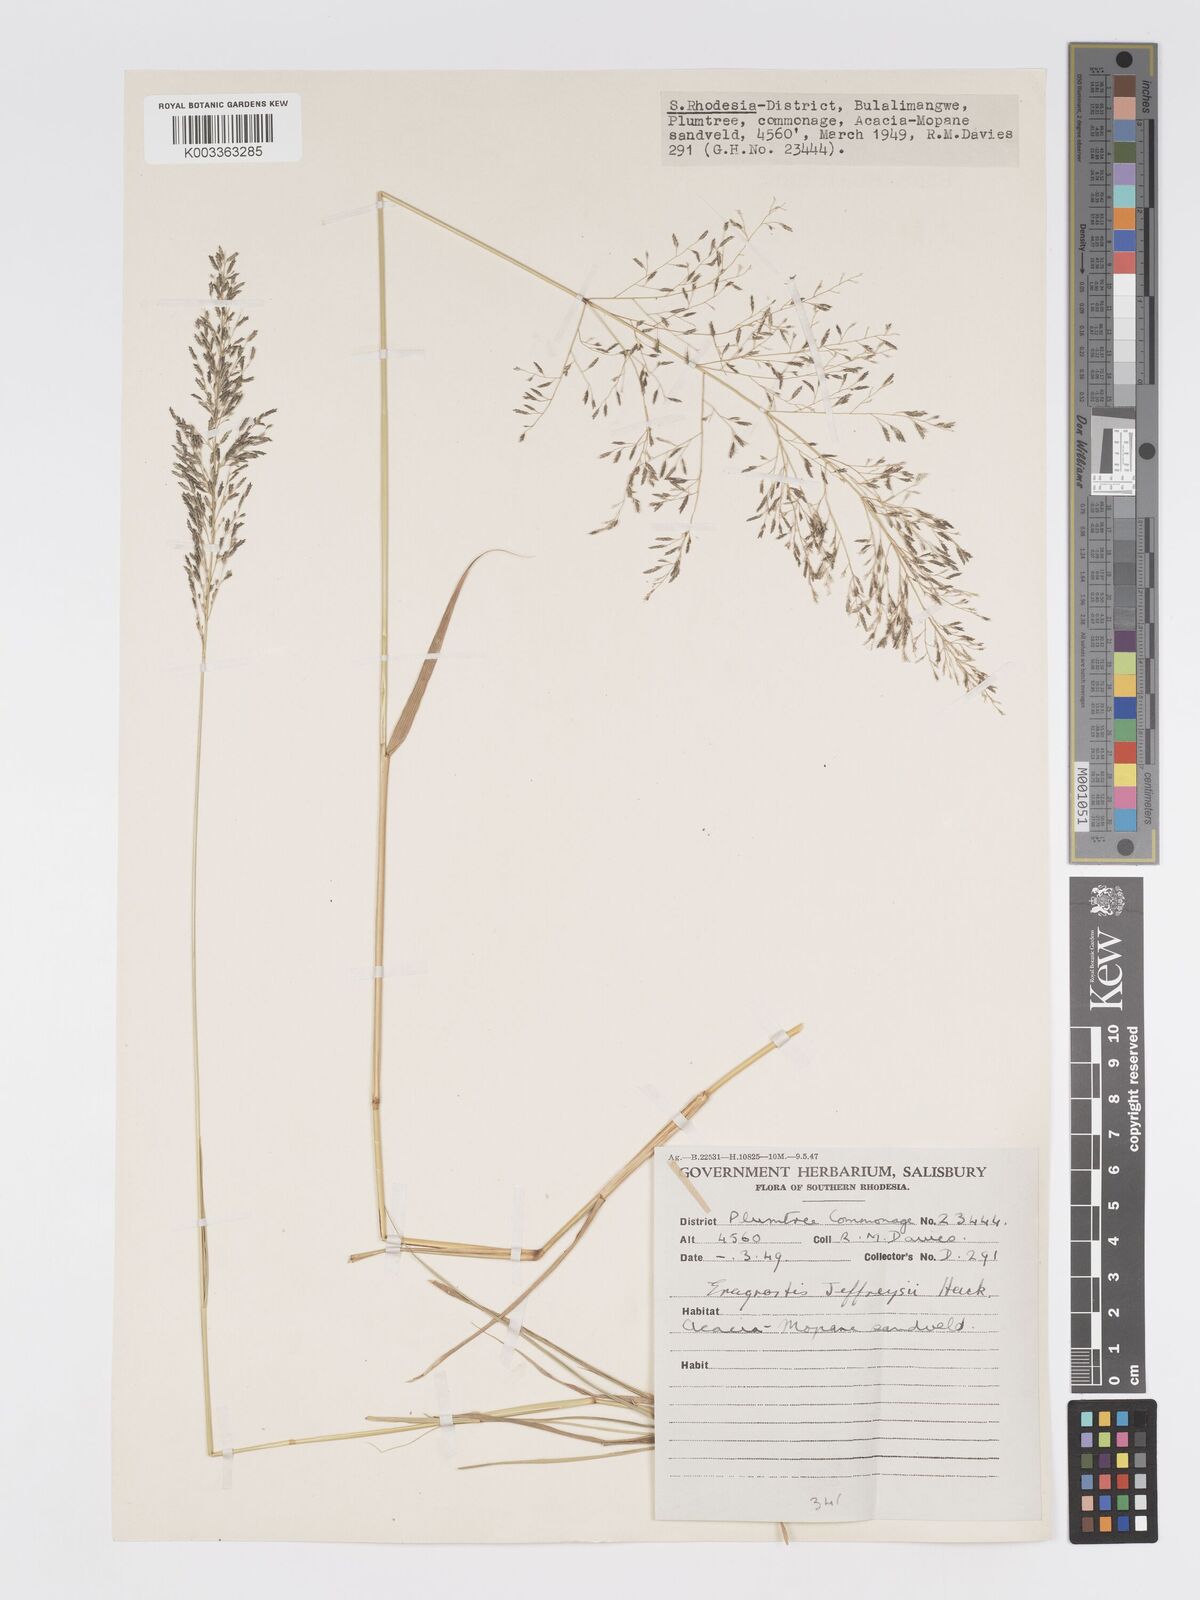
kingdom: Plantae
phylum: Tracheophyta
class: Liliopsida
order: Poales
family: Poaceae
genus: Eragrostis
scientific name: Eragrostis curvula
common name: African love-grass
